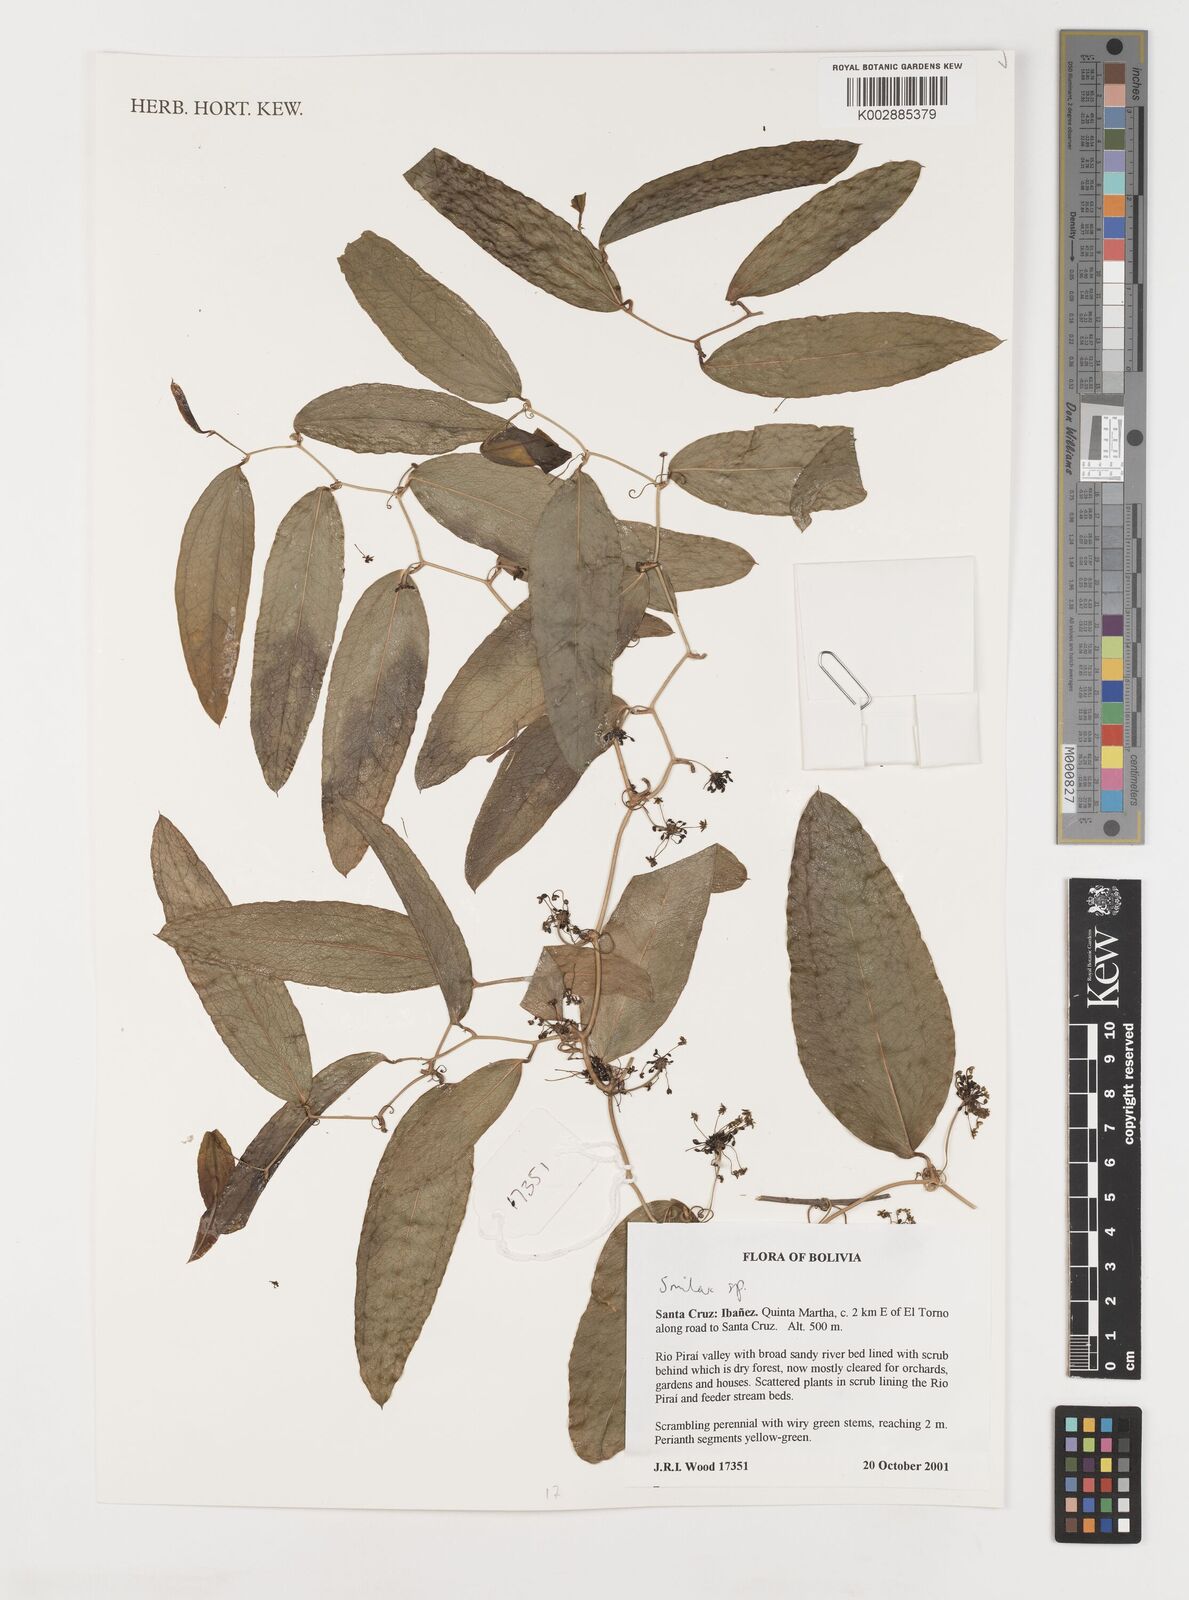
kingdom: Plantae
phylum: Tracheophyta
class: Liliopsida
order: Liliales
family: Smilacaceae
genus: Smilax
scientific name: Smilax
